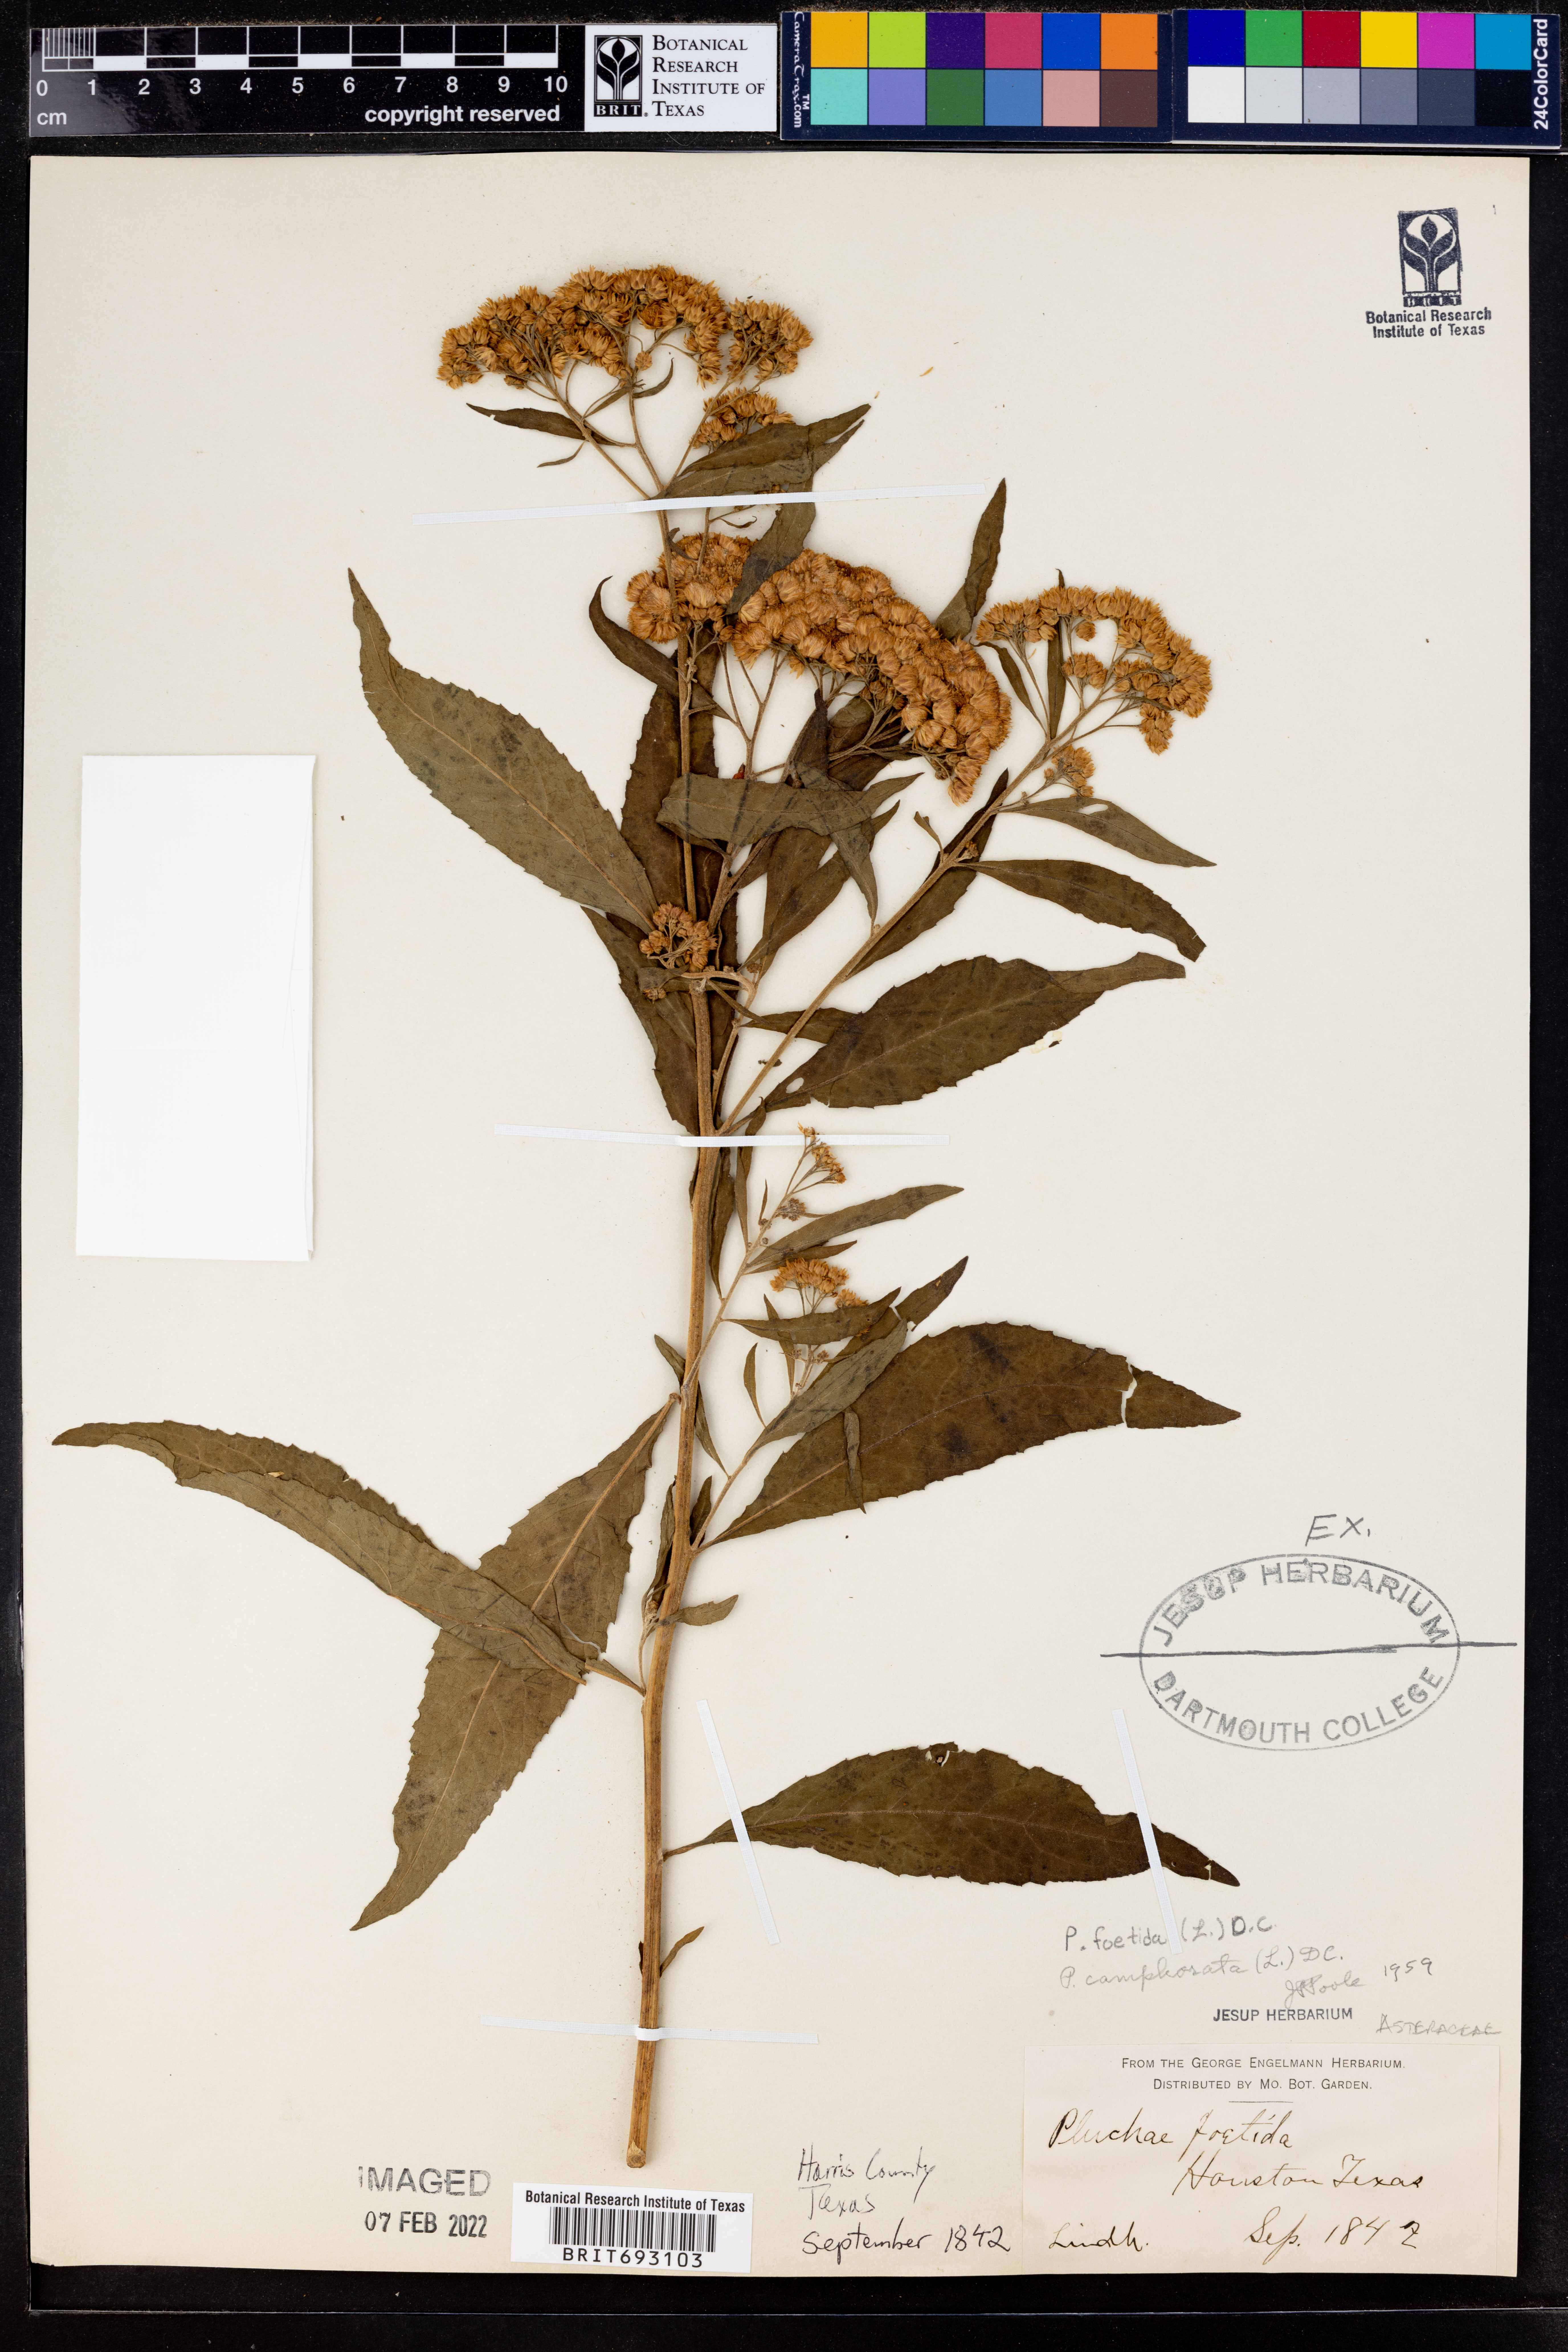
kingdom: Plantae
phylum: Tracheophyta
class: Magnoliopsida
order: Asterales
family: Asteraceae
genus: Pluchea
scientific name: Pluchea foetida
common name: Stinking camphorweed
